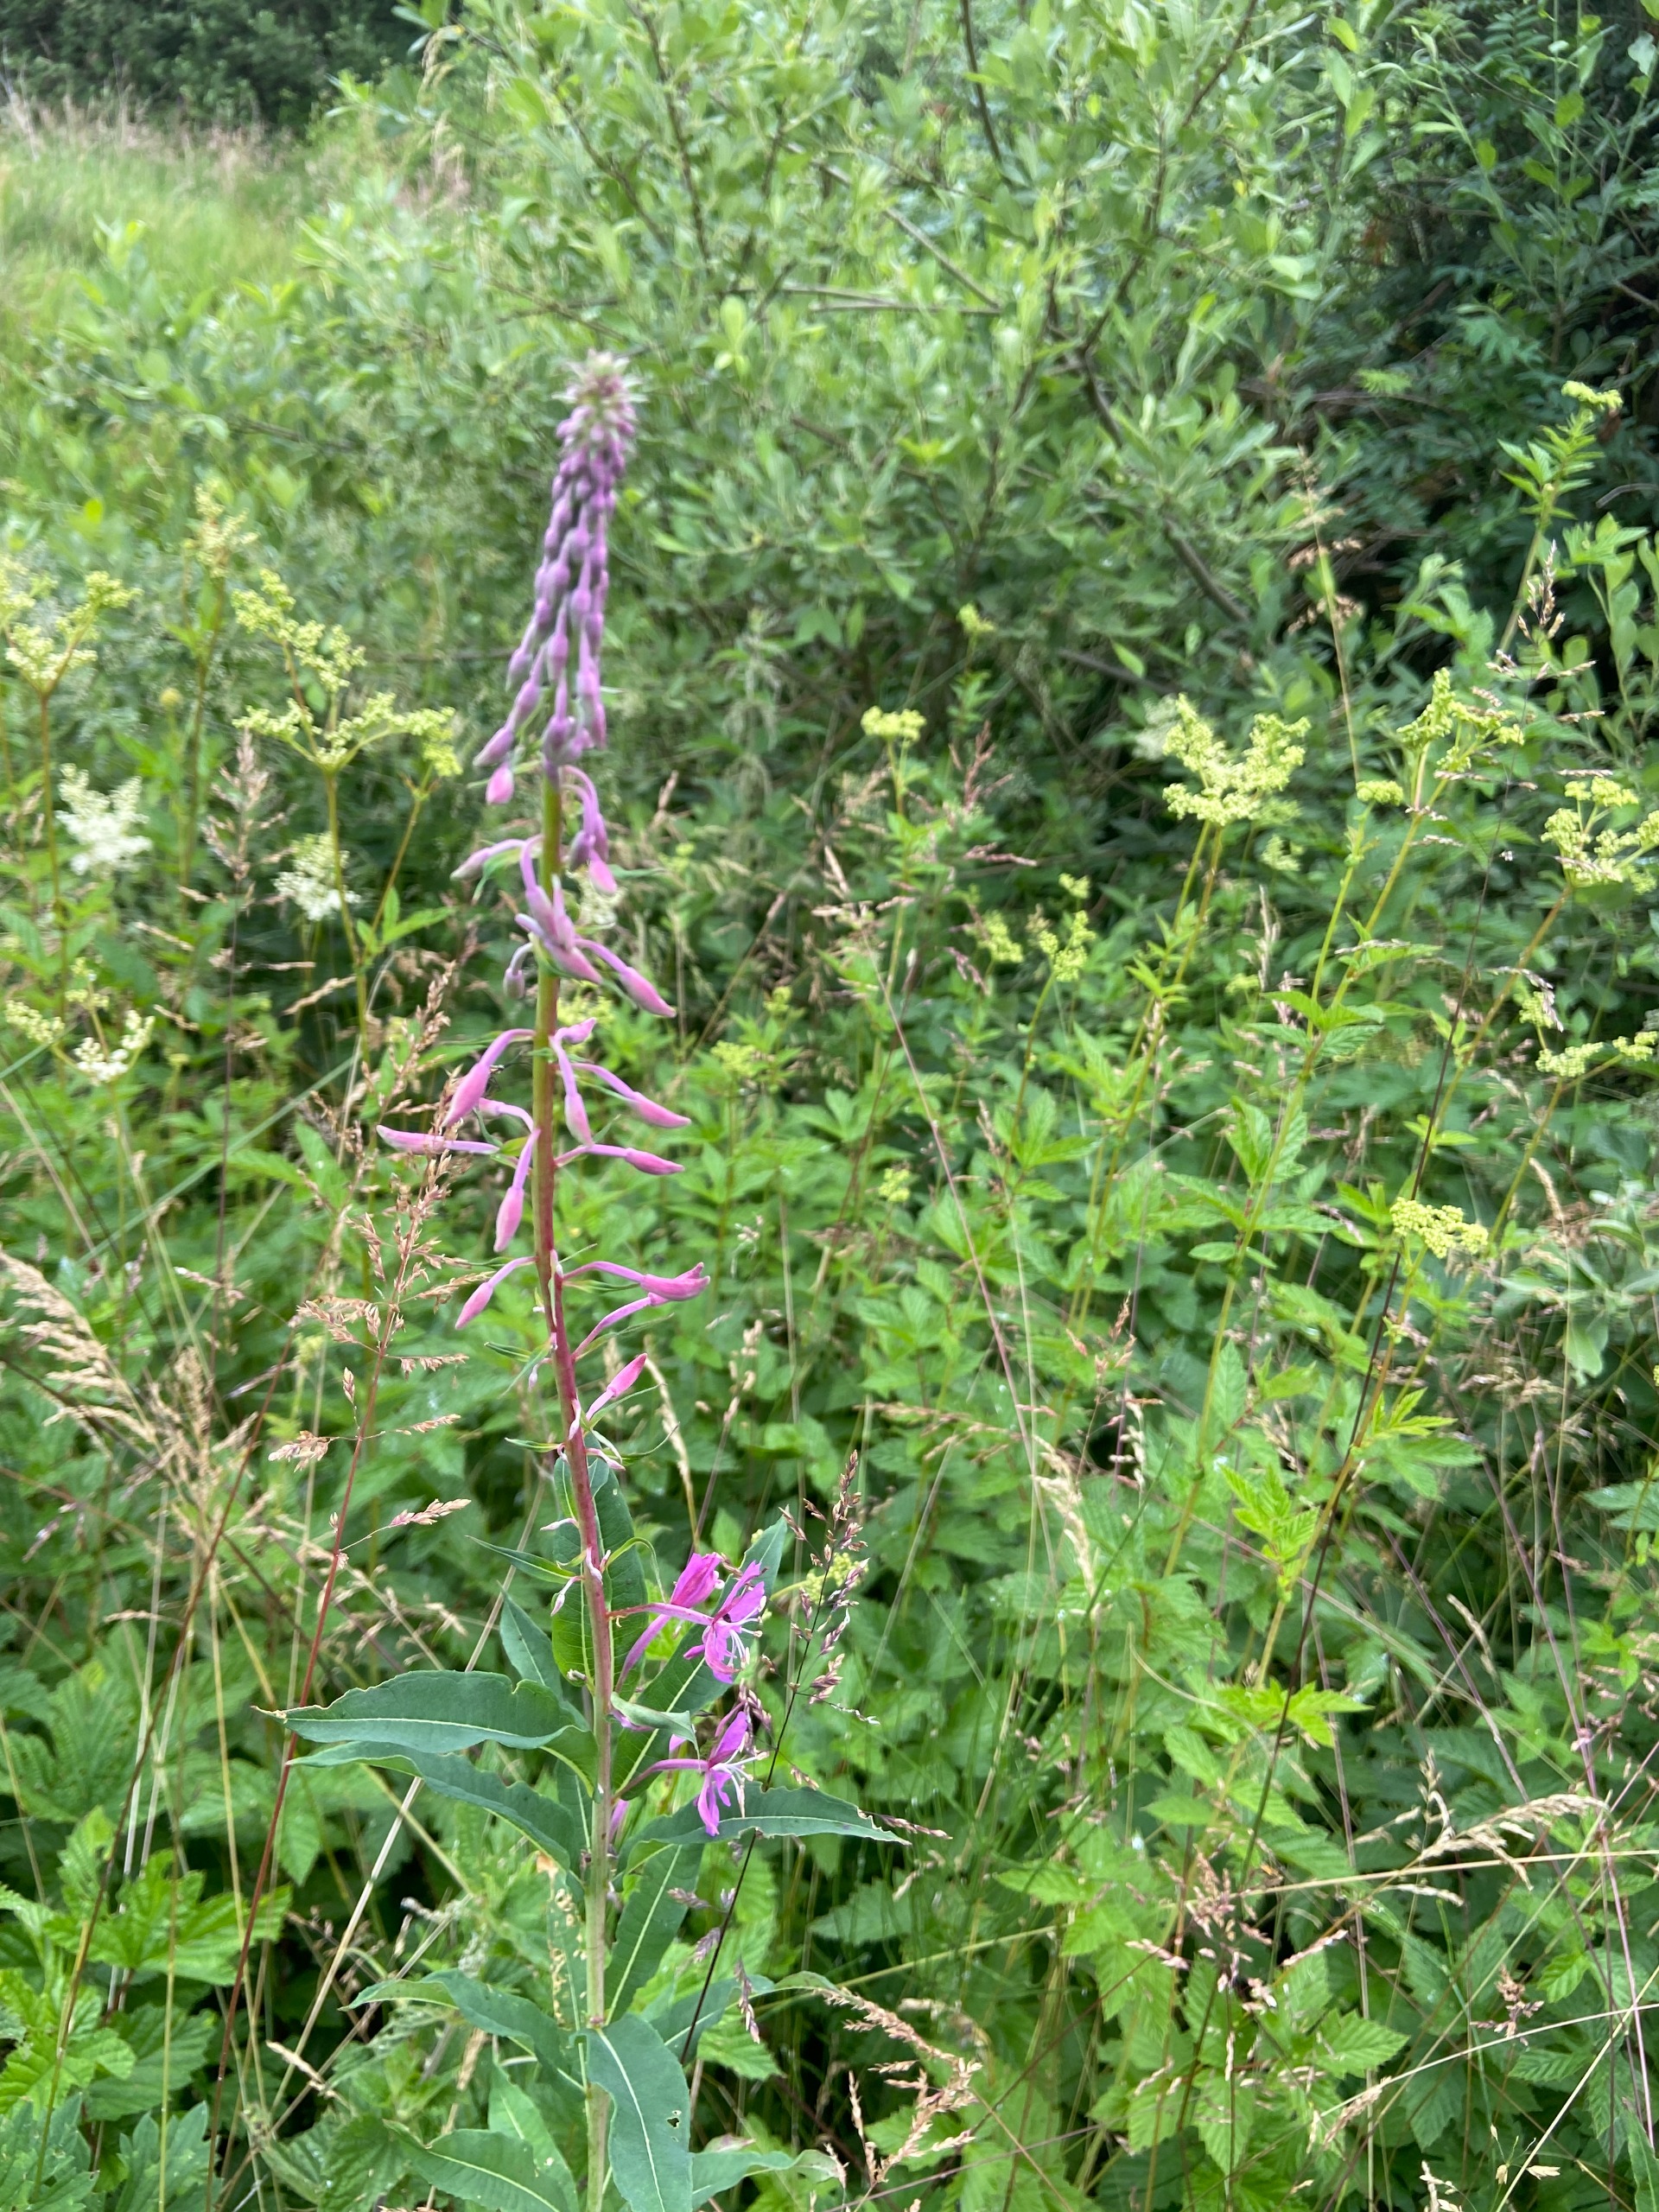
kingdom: Plantae
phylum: Tracheophyta
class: Magnoliopsida
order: Myrtales
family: Onagraceae
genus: Chamaenerion
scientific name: Chamaenerion angustifolium
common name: Gederams
